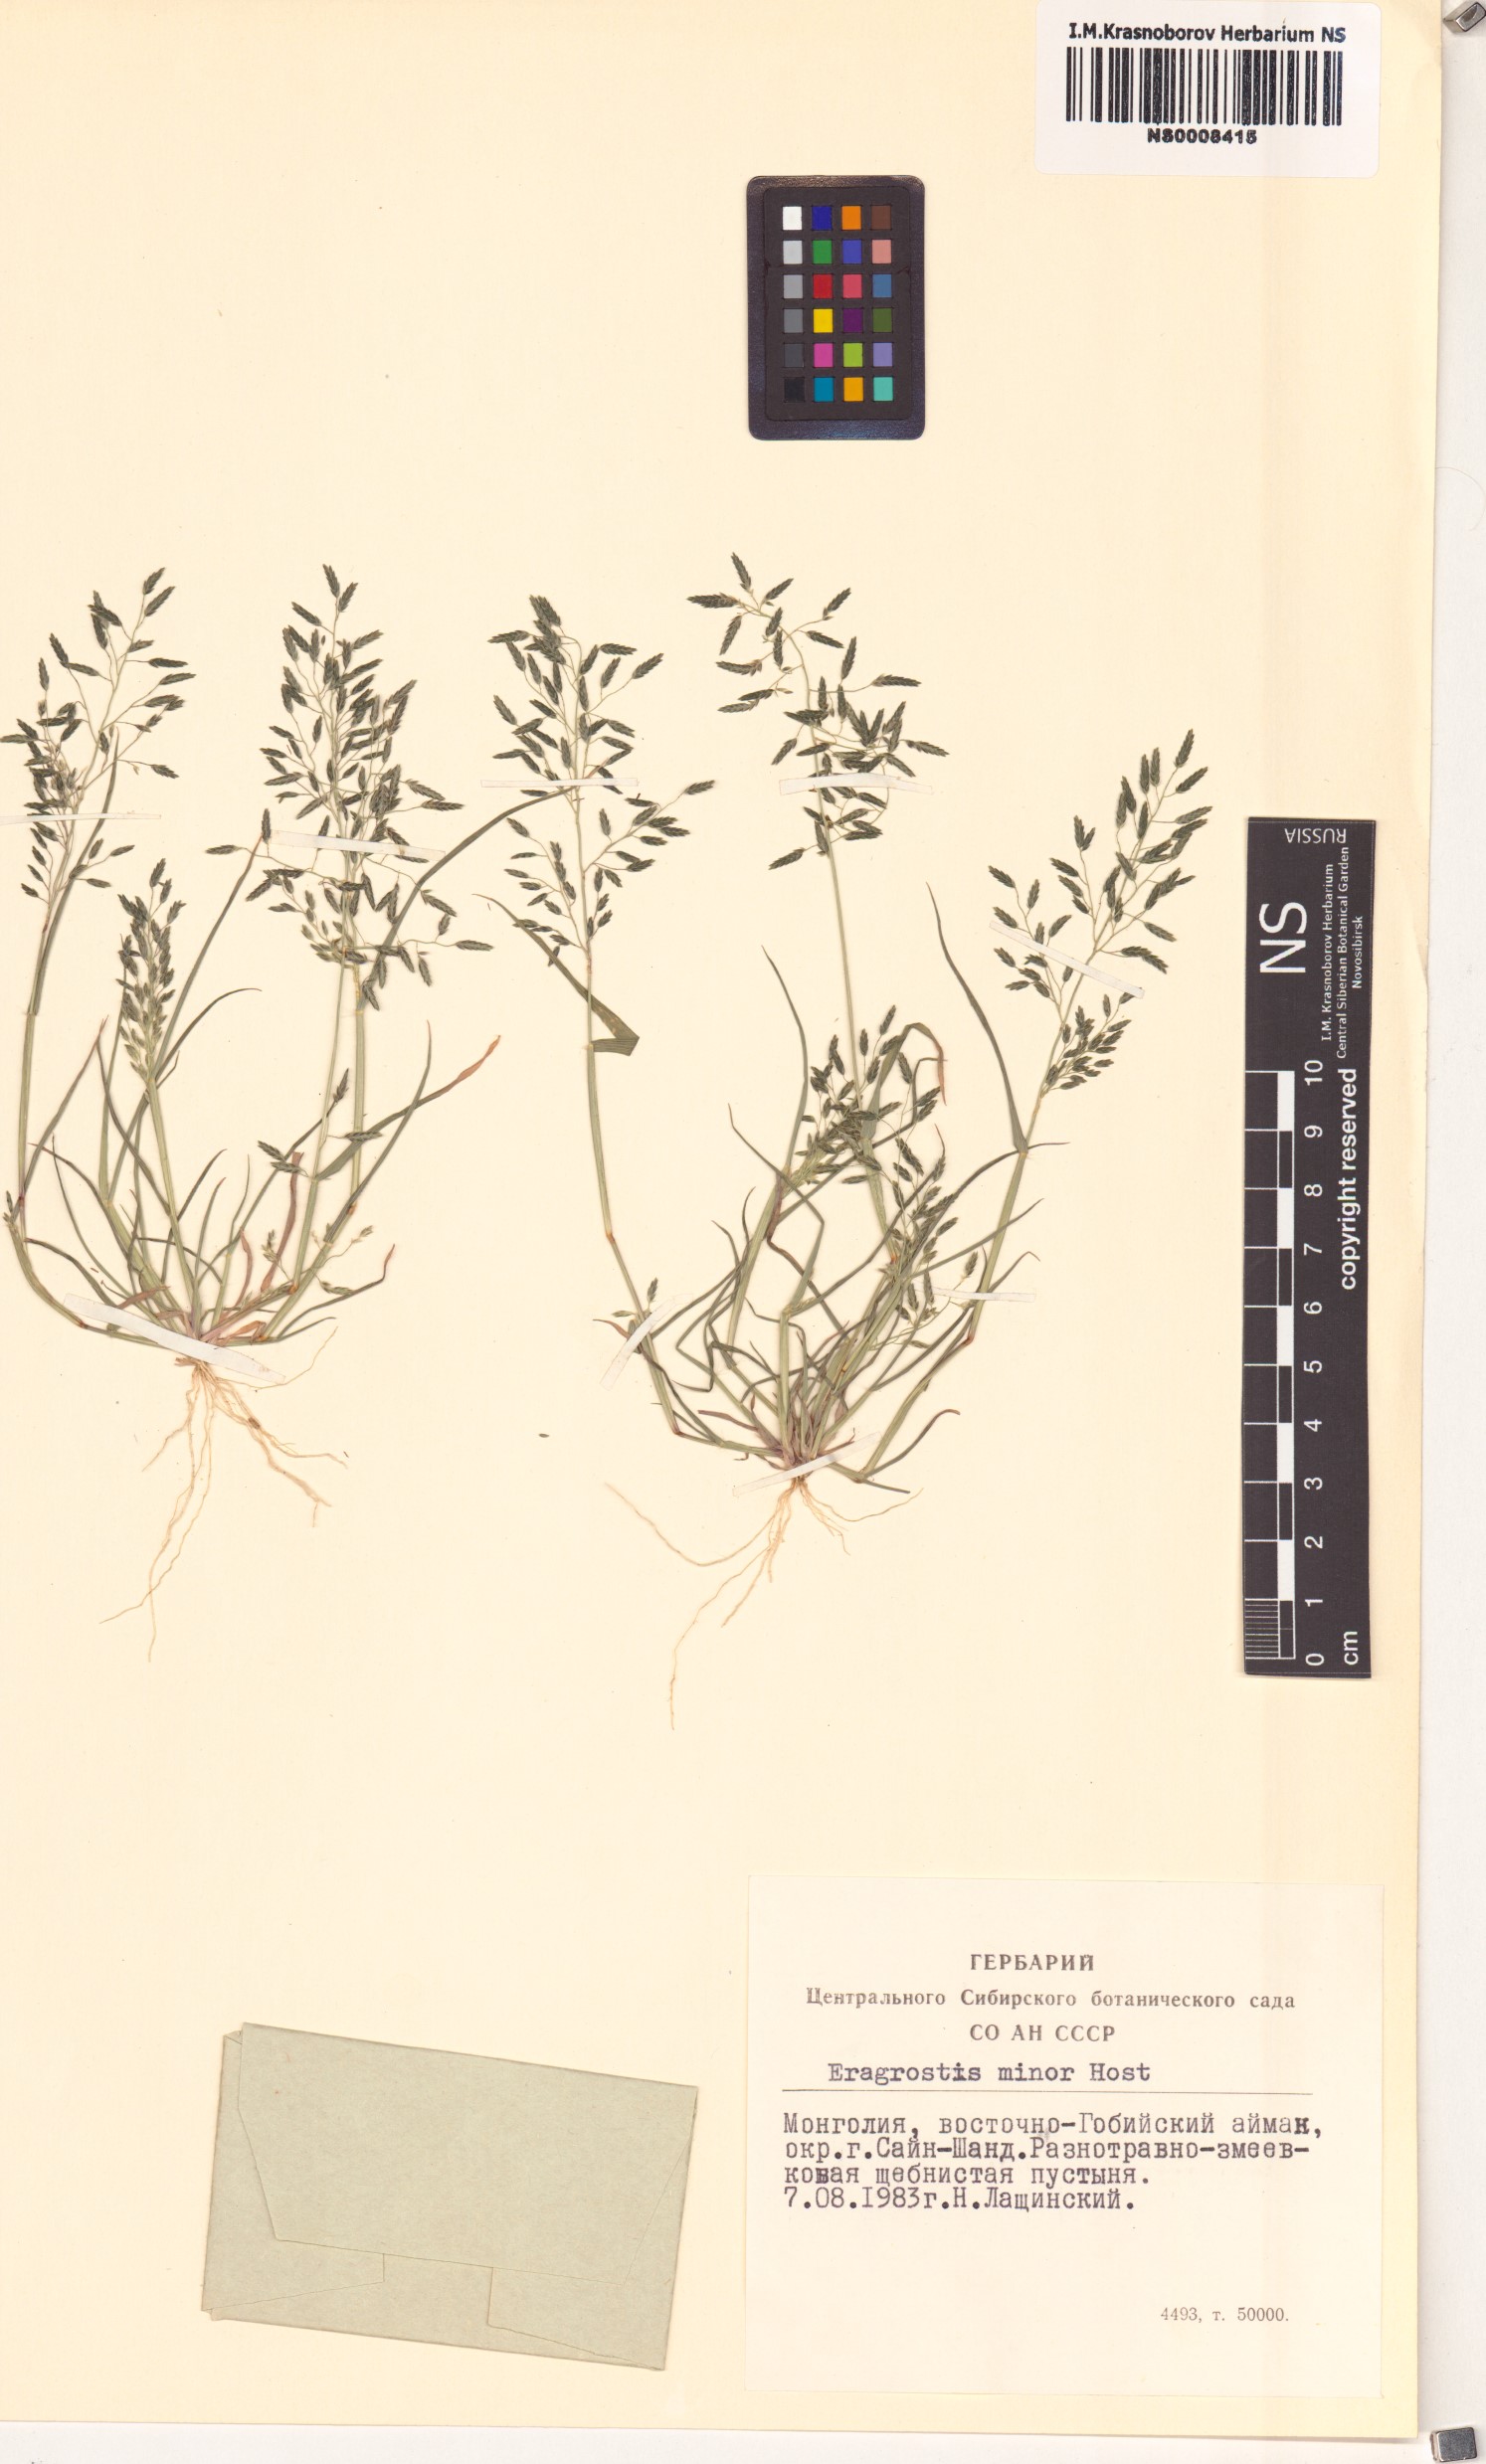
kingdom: Plantae
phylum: Tracheophyta
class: Liliopsida
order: Poales
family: Poaceae
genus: Eragrostis
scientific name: Eragrostis minor
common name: Small love-grass
